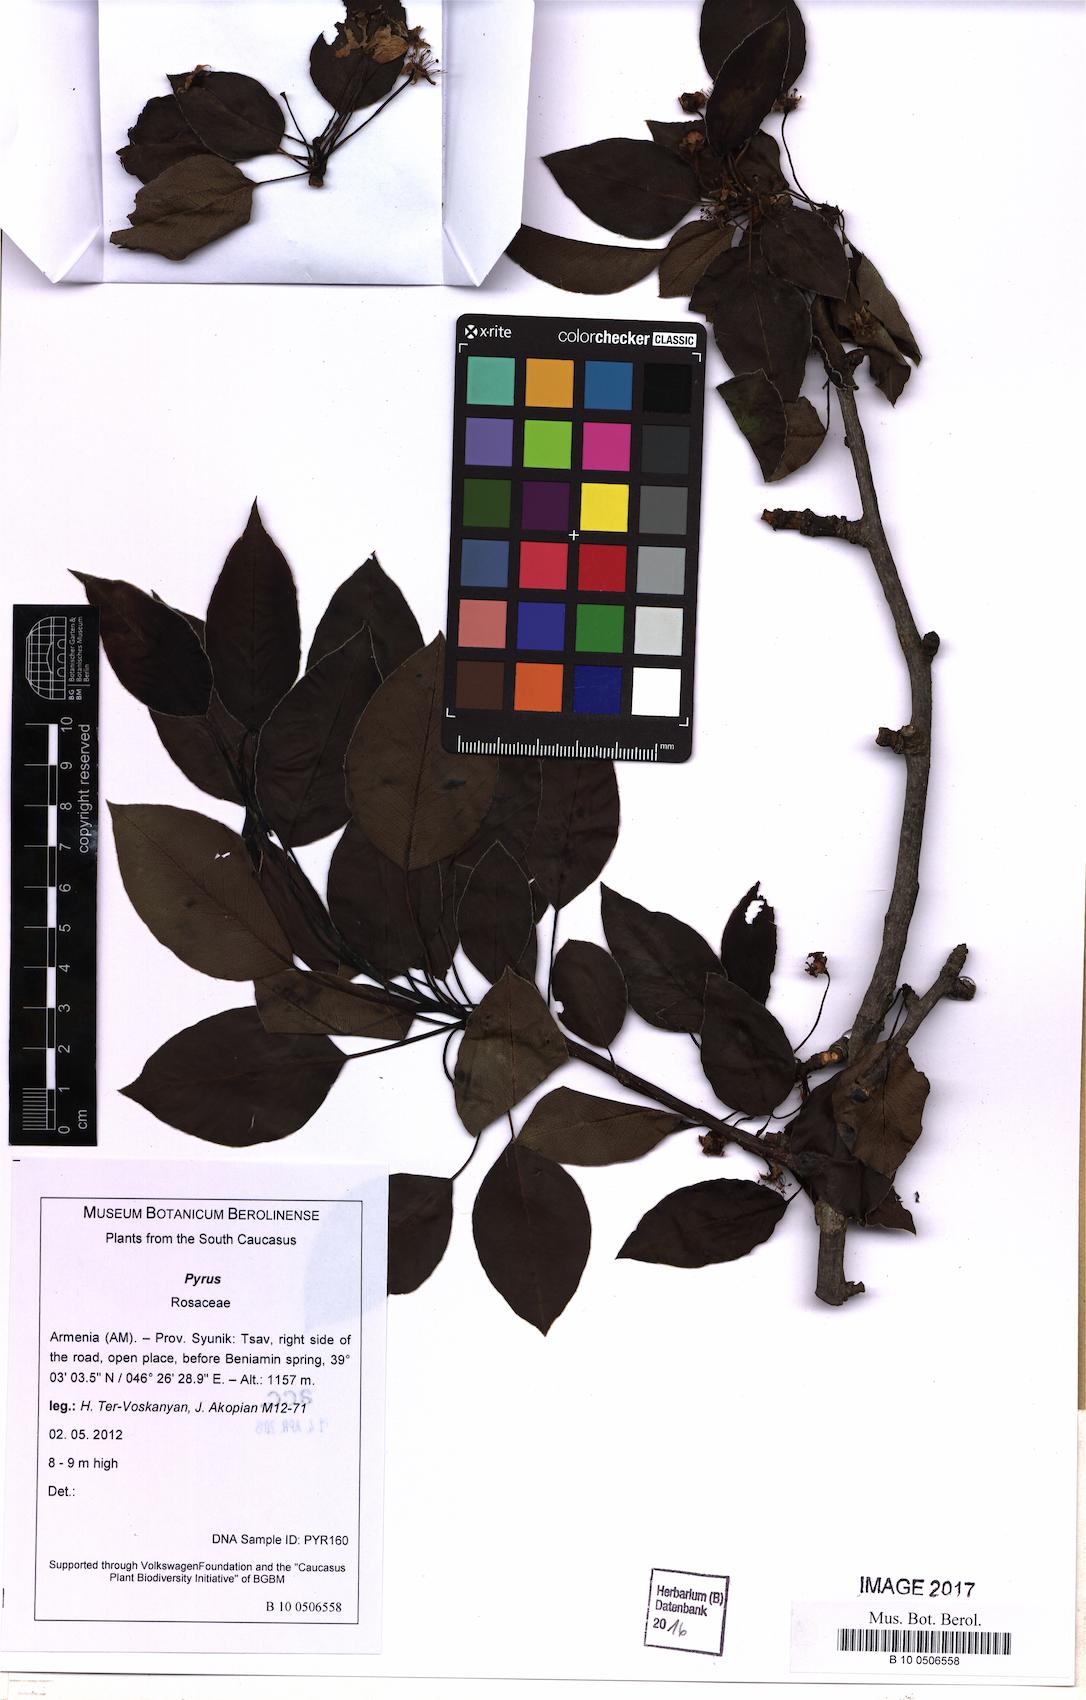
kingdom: Plantae
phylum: Tracheophyta
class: Magnoliopsida
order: Rosales
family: Rosaceae
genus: Pyrus
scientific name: Pyrus turcomanica
